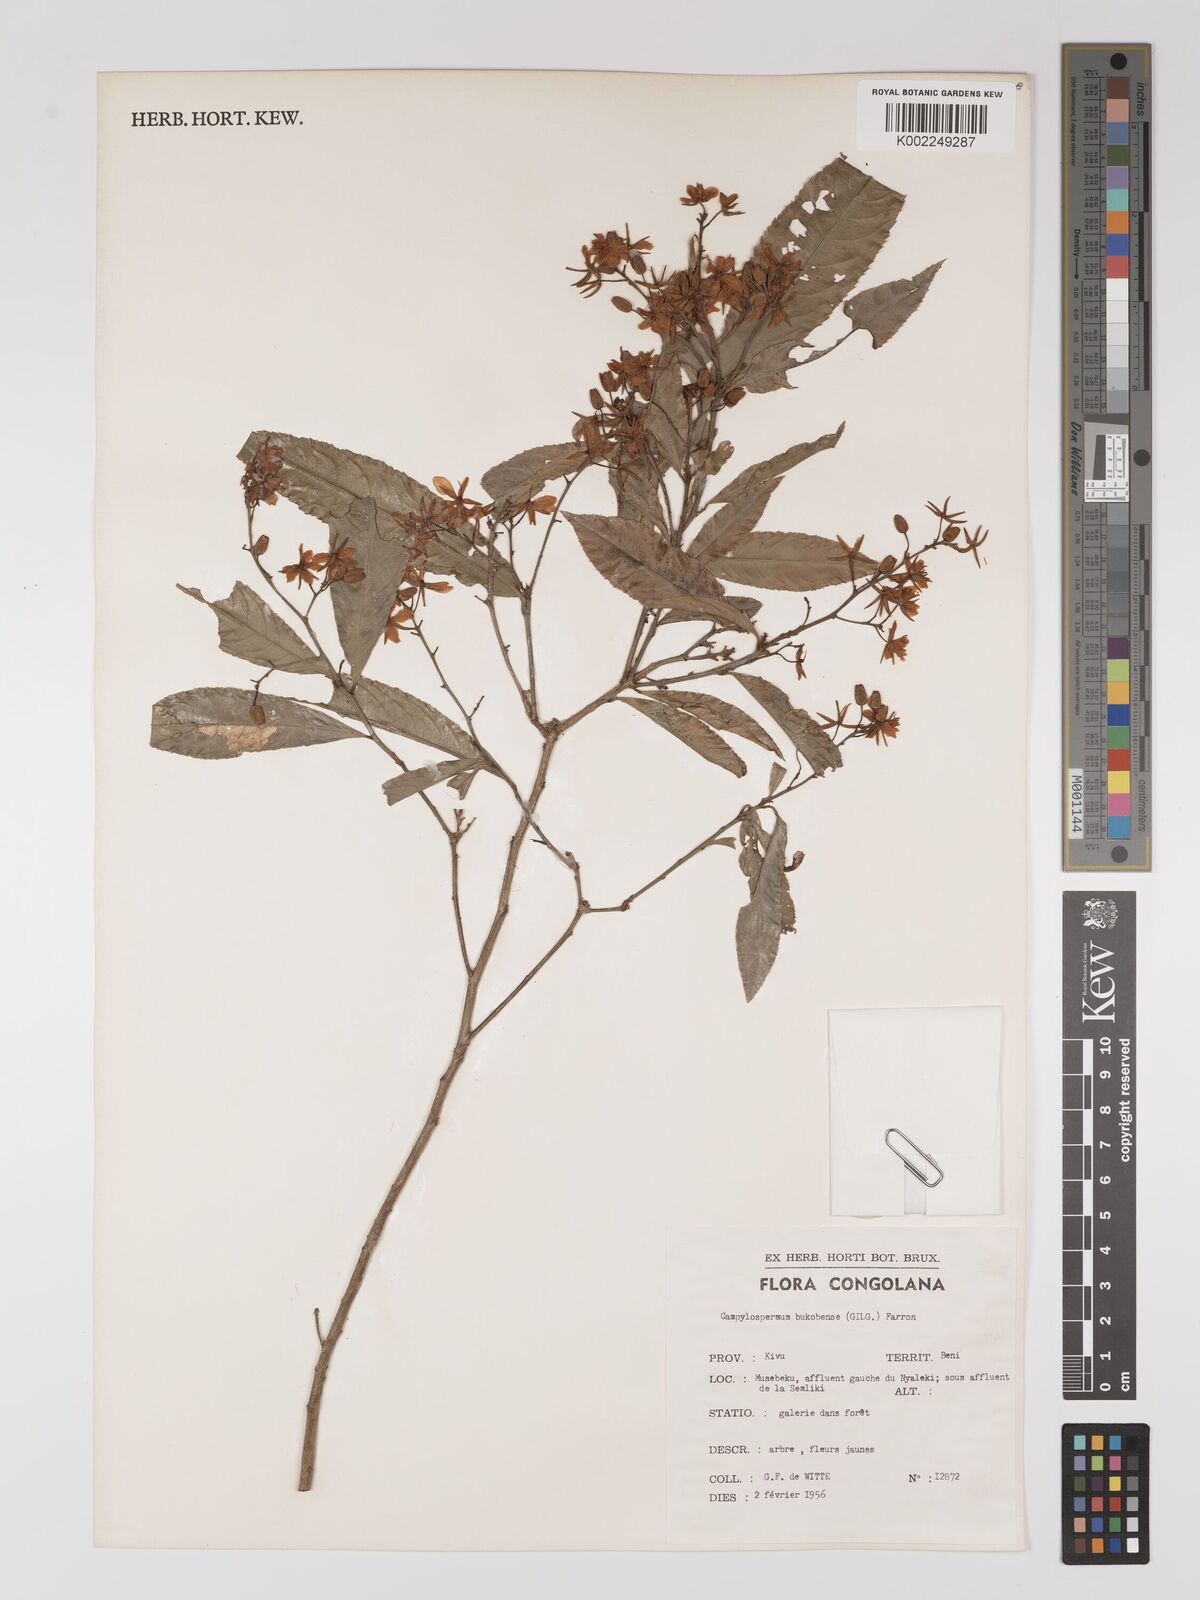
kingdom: Plantae
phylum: Tracheophyta
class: Magnoliopsida
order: Malpighiales
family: Ochnaceae
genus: Campylospermum
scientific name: Campylospermum likimiense
